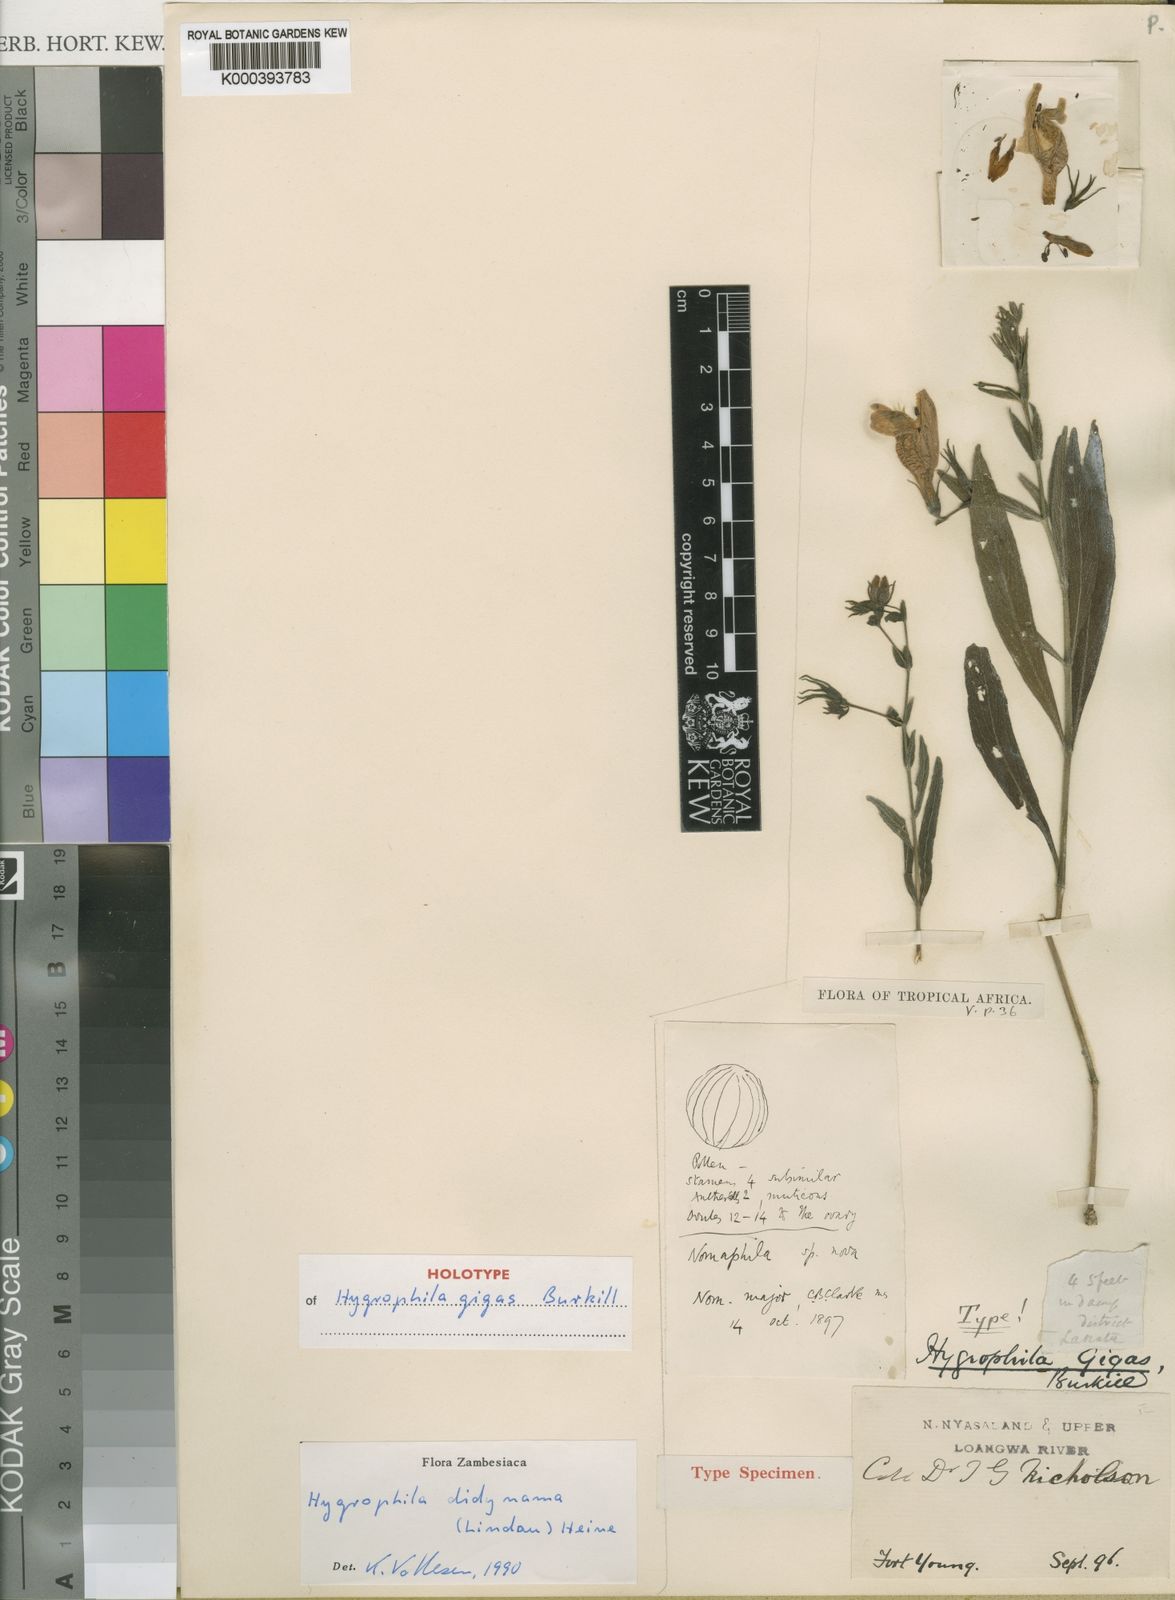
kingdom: Plantae
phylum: Tracheophyta
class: Magnoliopsida
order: Lamiales
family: Acanthaceae
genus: Hygrophila
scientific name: Hygrophila didynama
